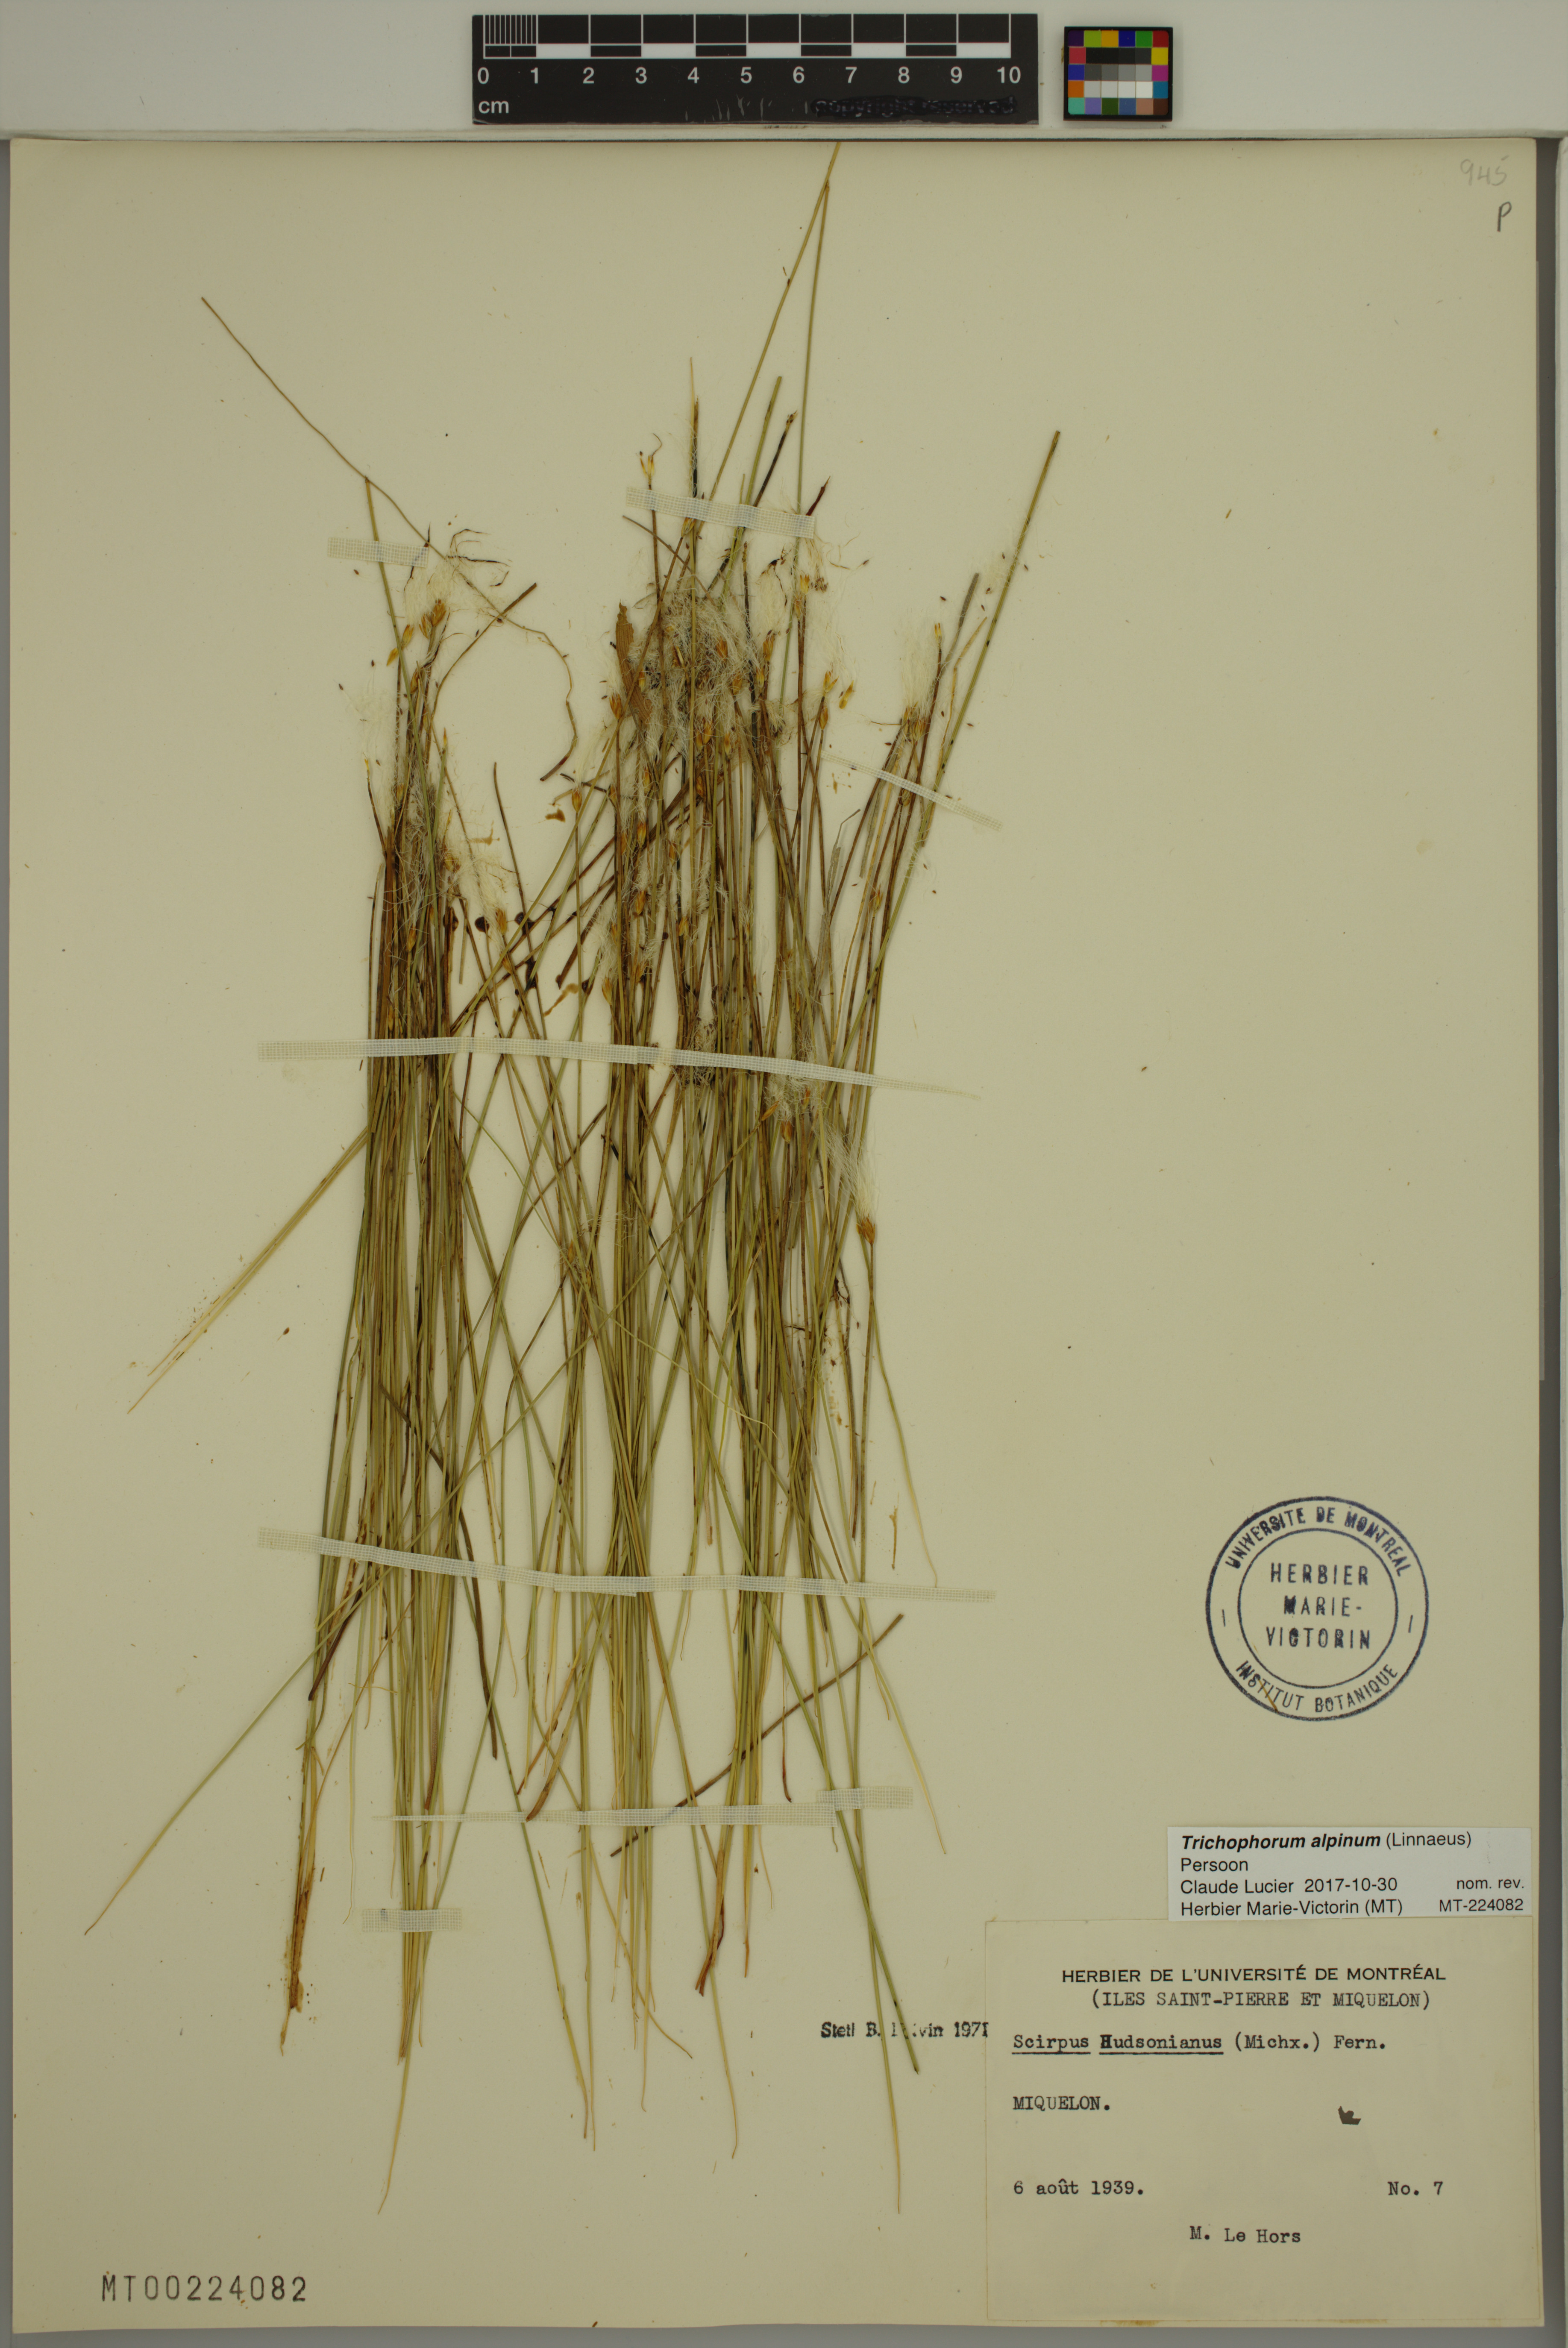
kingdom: Plantae
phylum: Tracheophyta
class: Liliopsida
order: Poales
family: Cyperaceae
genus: Trichophorum
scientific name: Trichophorum alpinum
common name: Alpine bulrush
